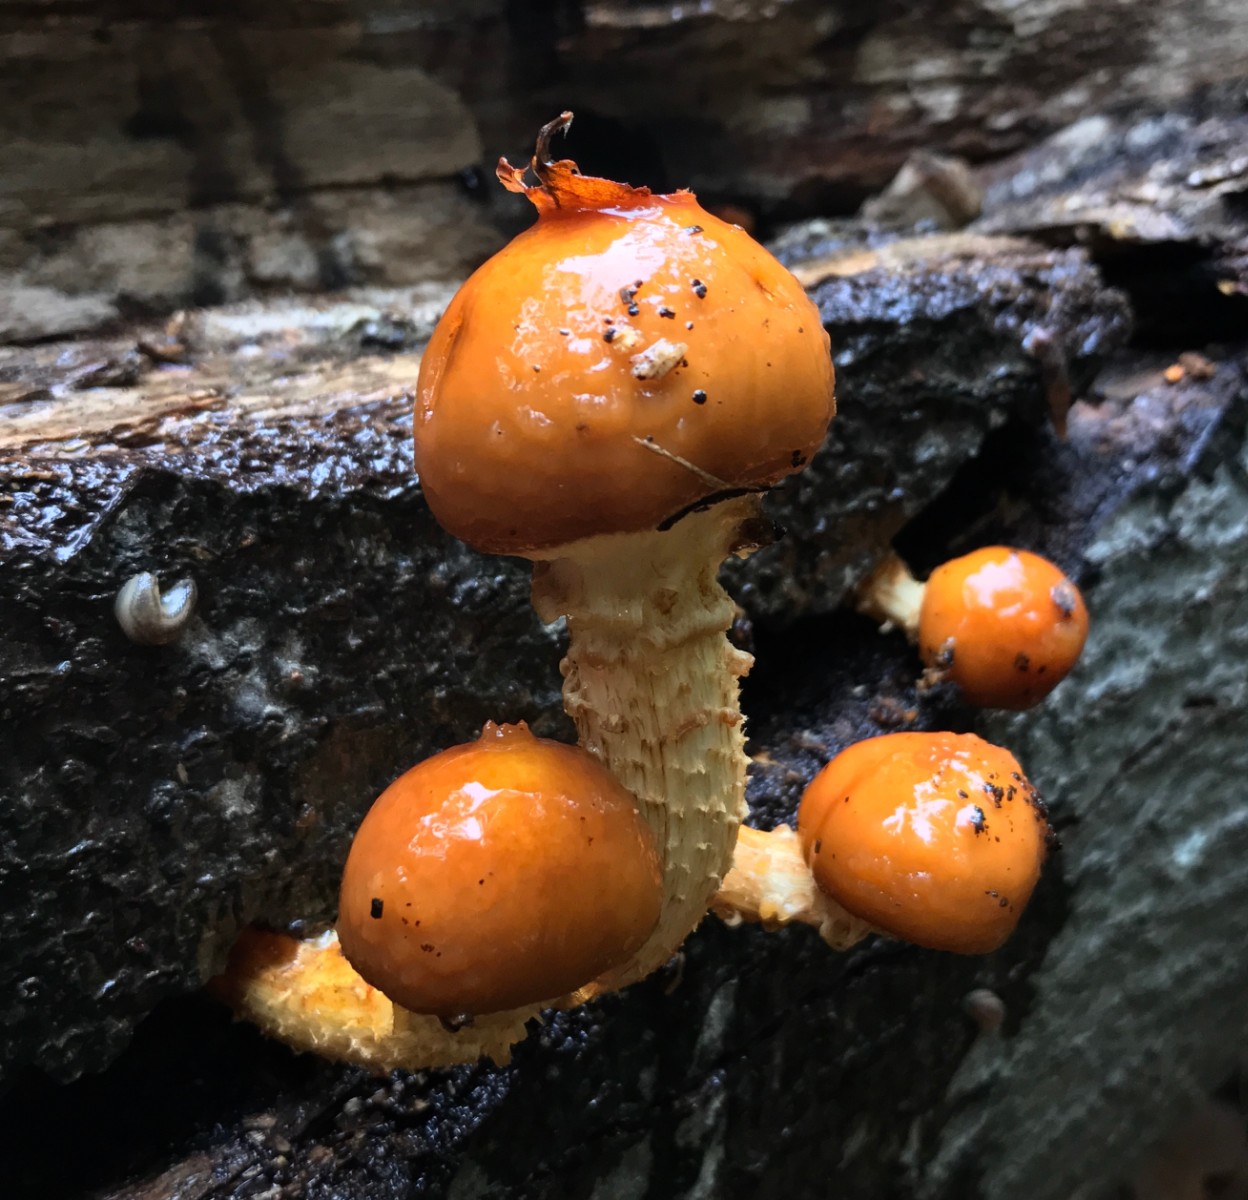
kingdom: Fungi
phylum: Basidiomycota
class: Agaricomycetes
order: Agaricales
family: Strophariaceae
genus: Pholiota
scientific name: Pholiota adiposa
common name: højtsiddende skælhat
